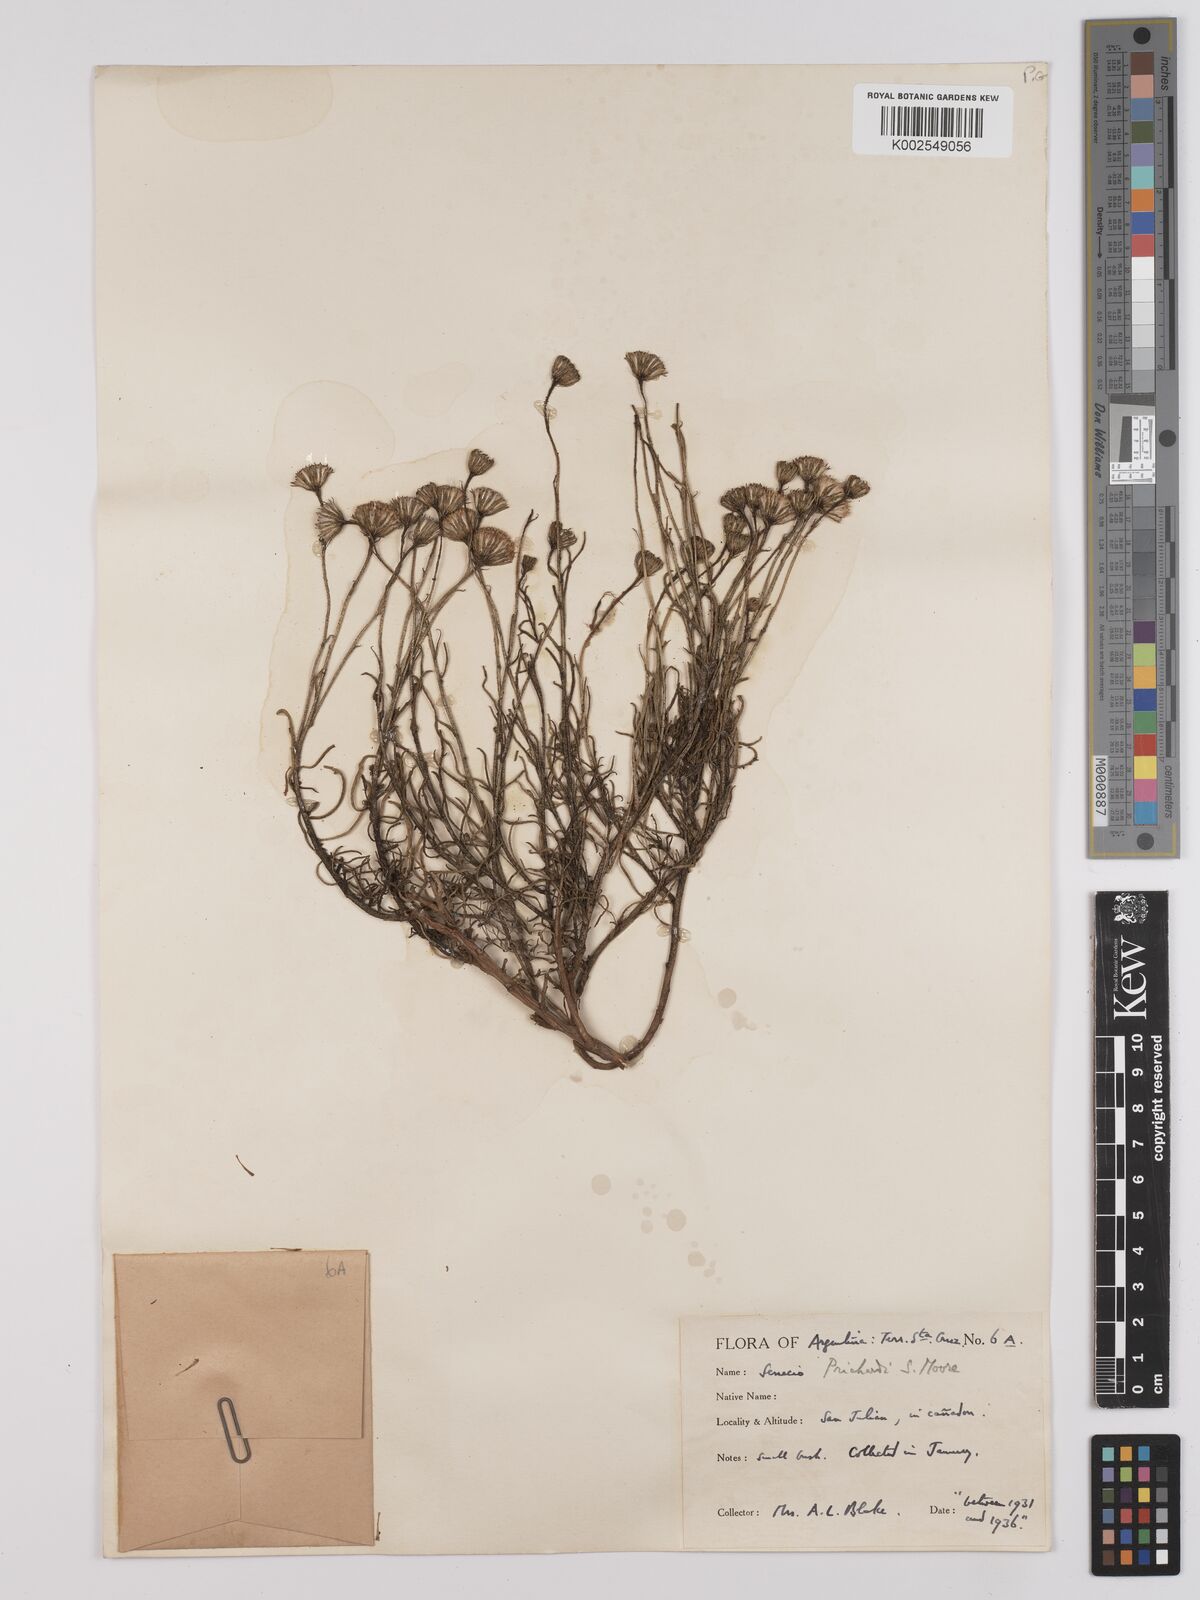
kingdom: Plantae
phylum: Tracheophyta
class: Magnoliopsida
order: Asterales
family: Asteraceae
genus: Senecio
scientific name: Senecio miser
